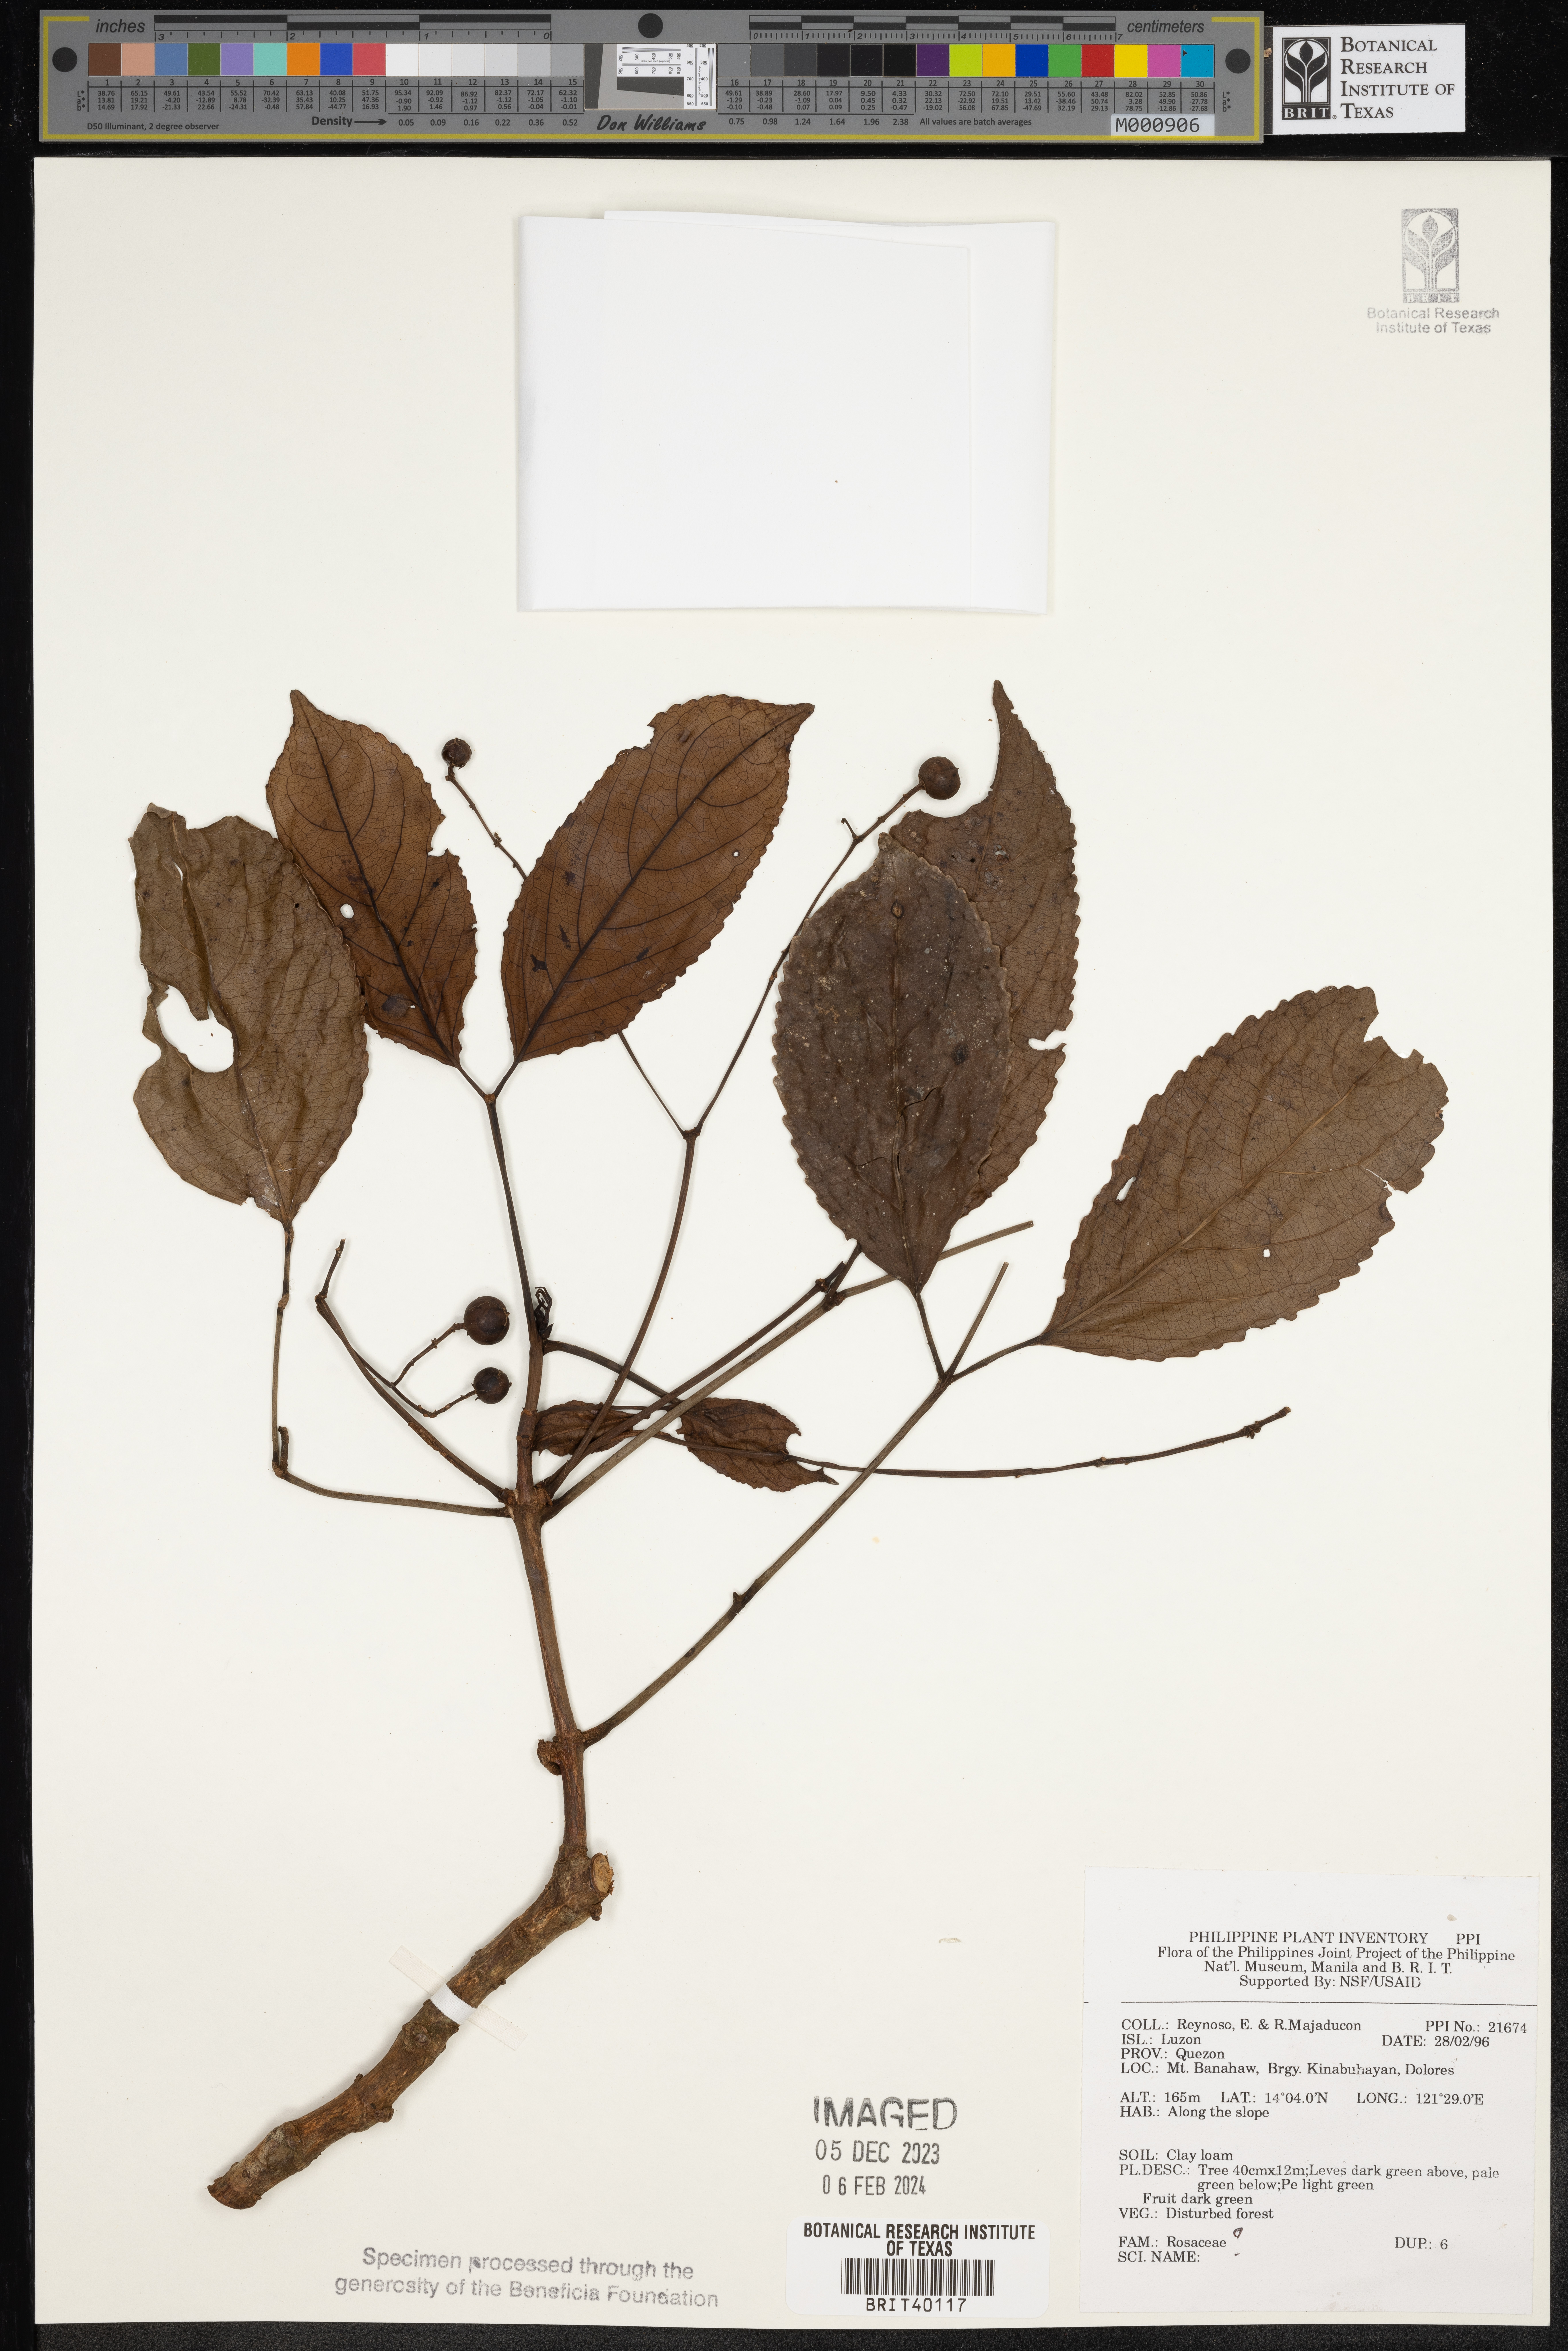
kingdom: Plantae
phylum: Tracheophyta
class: Magnoliopsida
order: Rosales
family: Rosaceae
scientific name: Rosaceae
